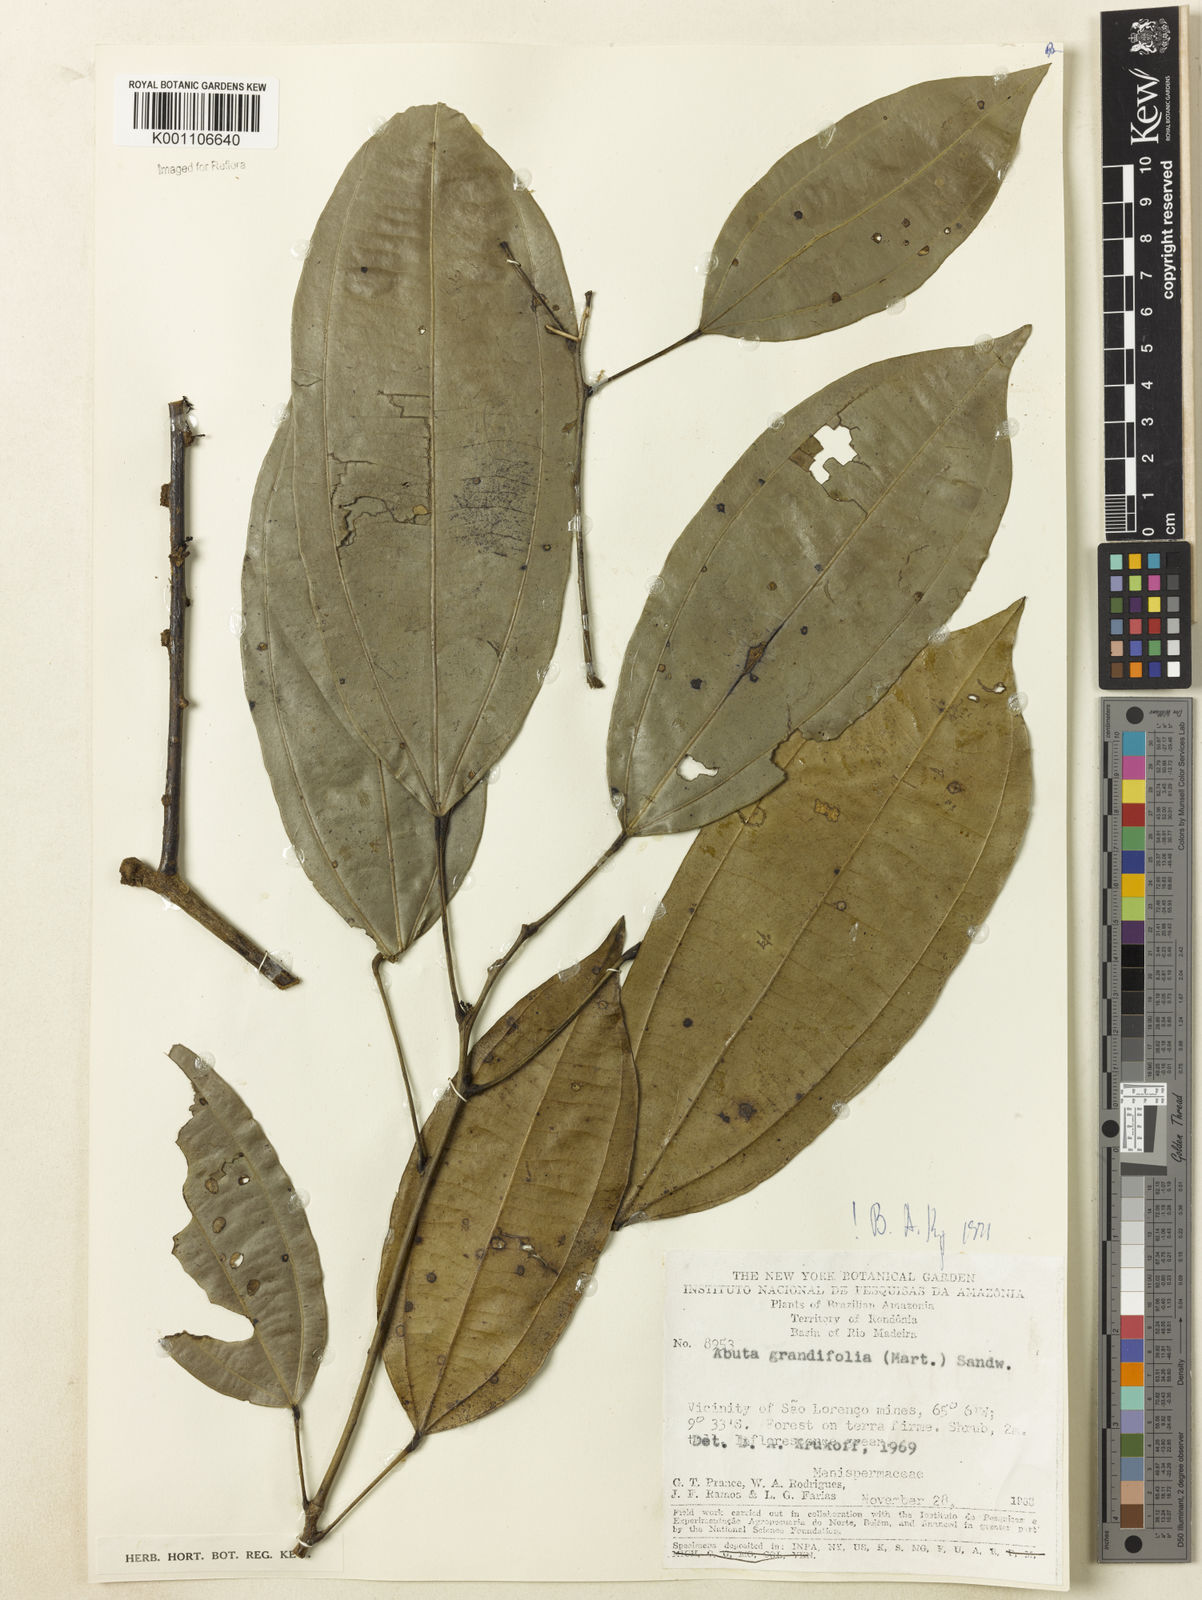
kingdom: Plantae
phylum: Tracheophyta
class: Magnoliopsida
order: Ranunculales
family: Menispermaceae
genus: Abuta
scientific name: Abuta grandifolia
